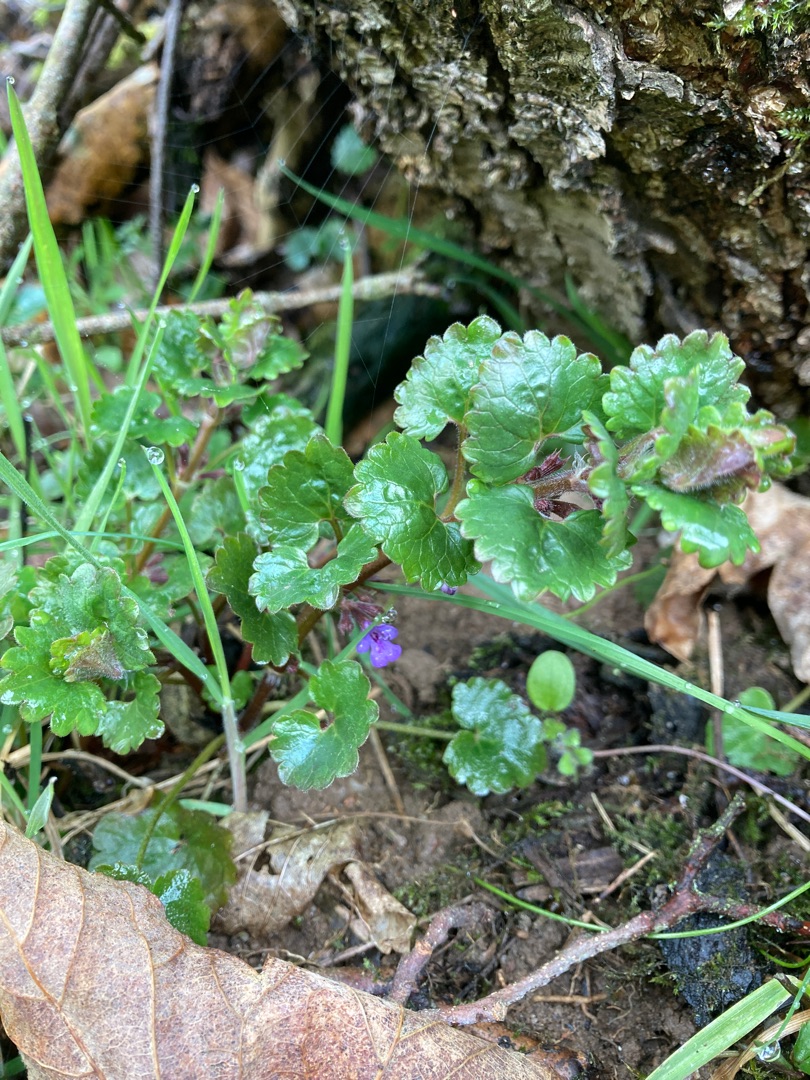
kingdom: Plantae
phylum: Tracheophyta
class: Magnoliopsida
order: Lamiales
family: Lamiaceae
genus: Glechoma
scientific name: Glechoma hederacea
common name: Korsknap
